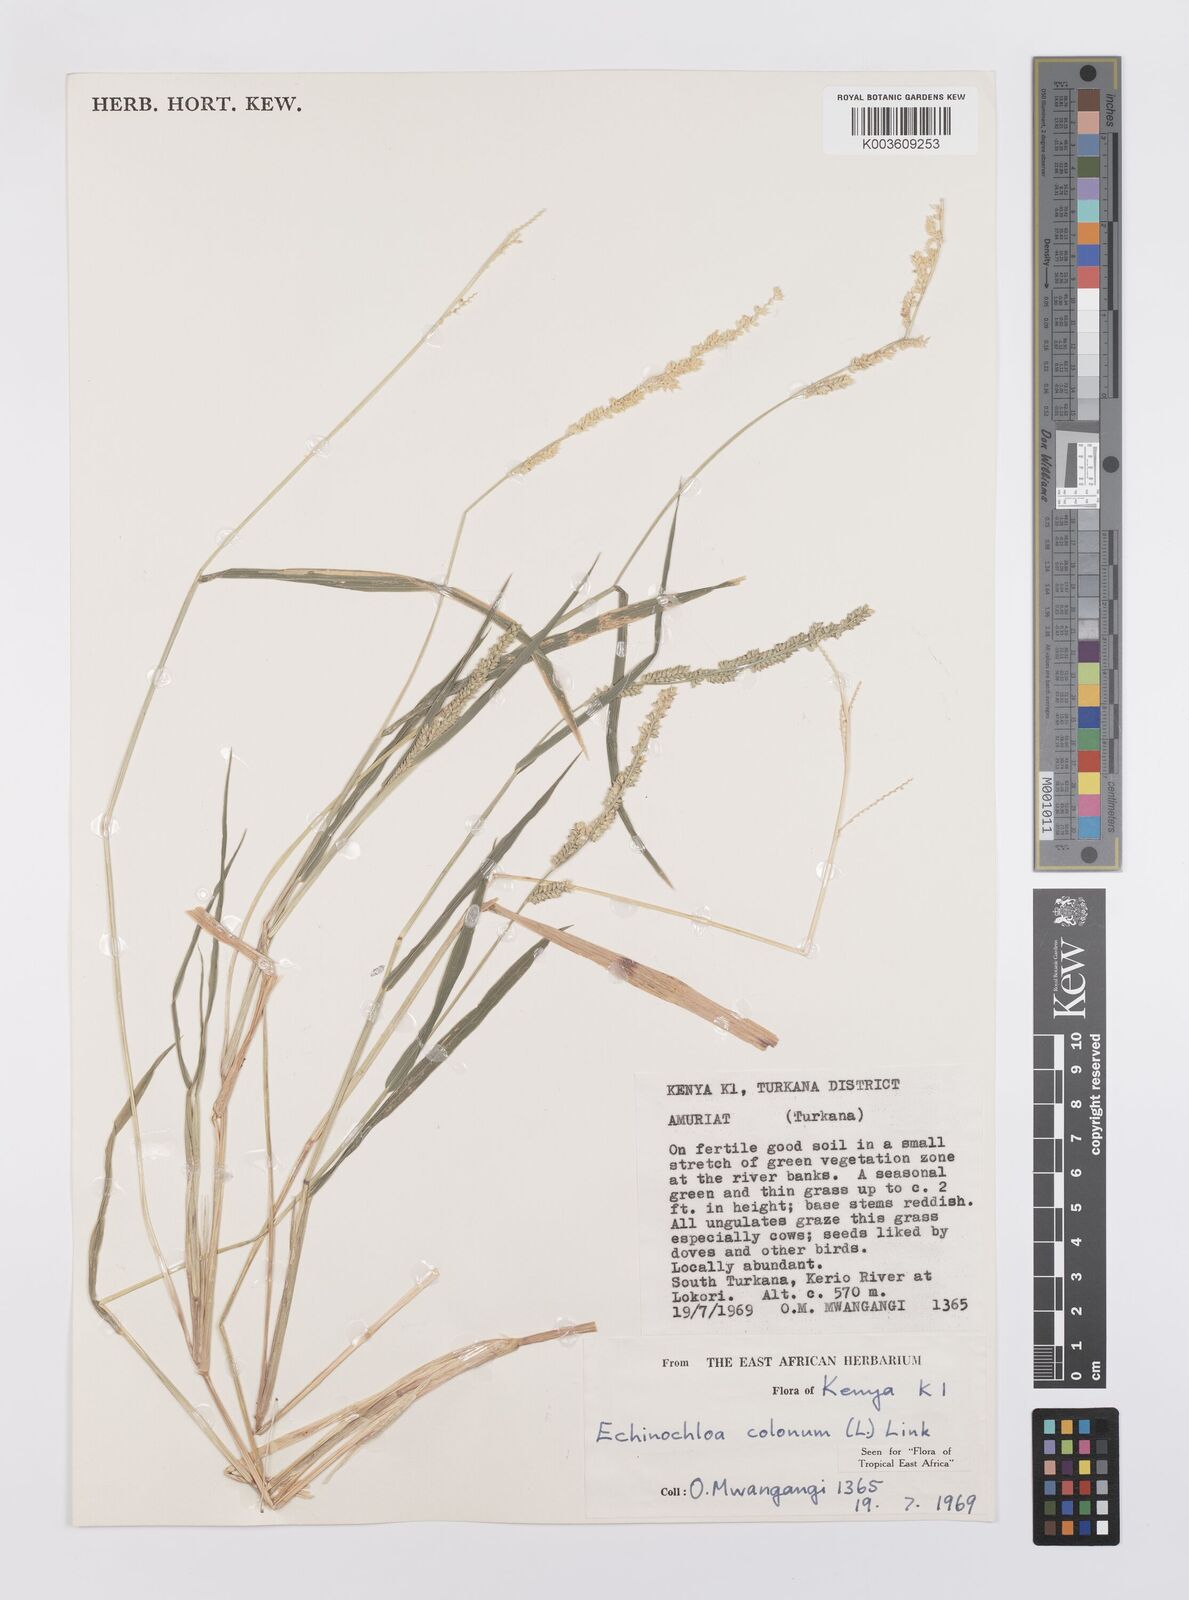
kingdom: Plantae
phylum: Tracheophyta
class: Liliopsida
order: Poales
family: Poaceae
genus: Echinochloa
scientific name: Echinochloa colonum
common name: Jungle rice
